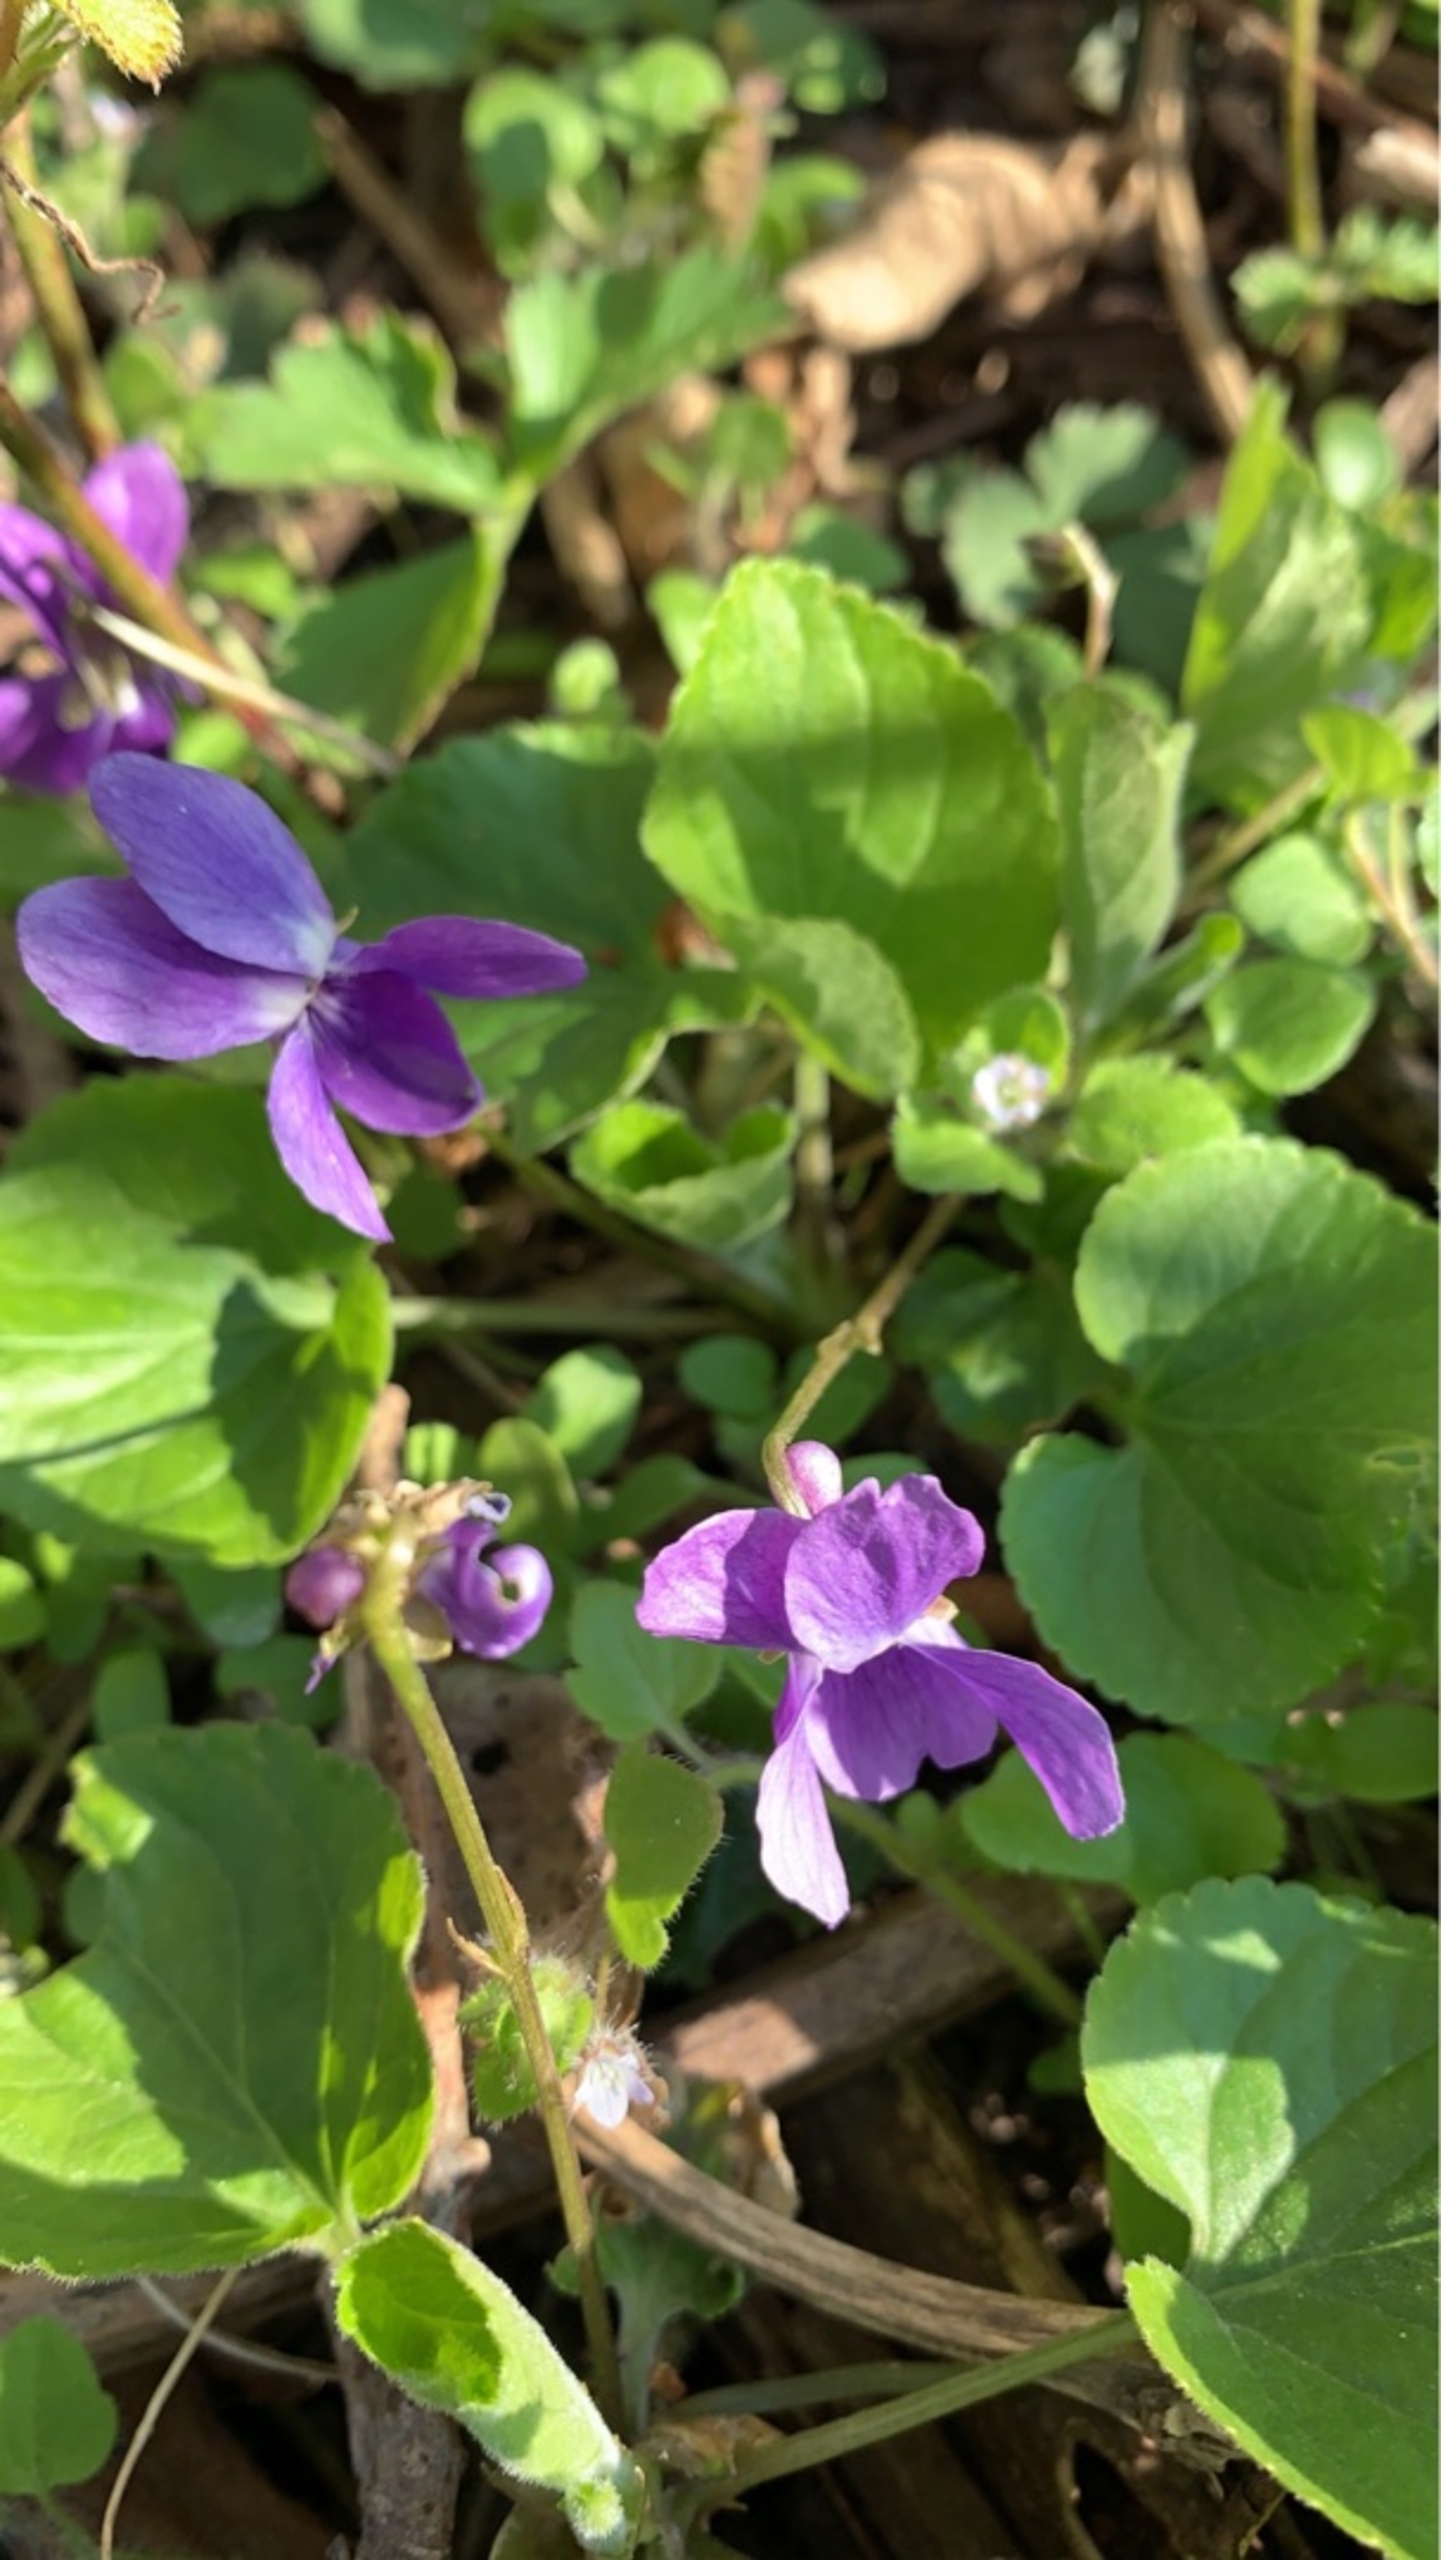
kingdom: Plantae
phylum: Tracheophyta
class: Magnoliopsida
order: Malpighiales
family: Violaceae
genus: Viola
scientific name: Viola odorata
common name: Marts-viol
